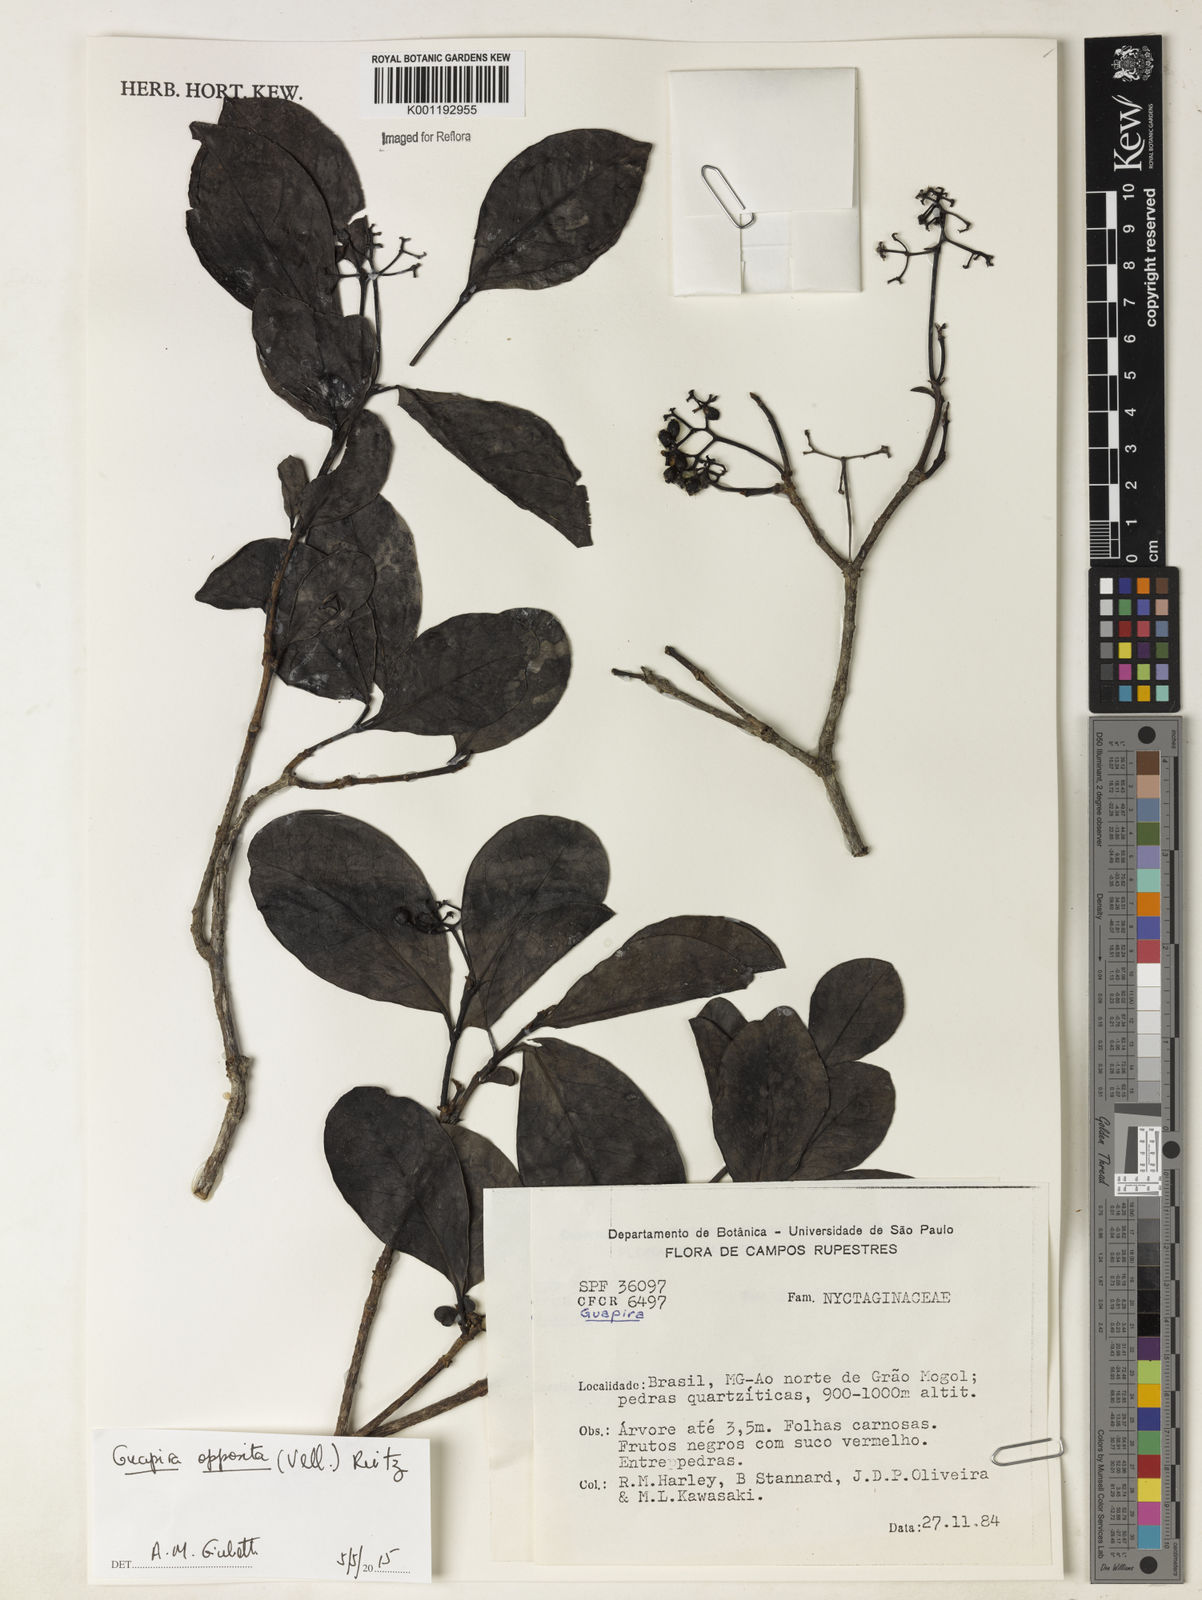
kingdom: Plantae
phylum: Tracheophyta
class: Magnoliopsida
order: Caryophyllales
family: Nyctaginaceae
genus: Guapira
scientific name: Guapira opposita
